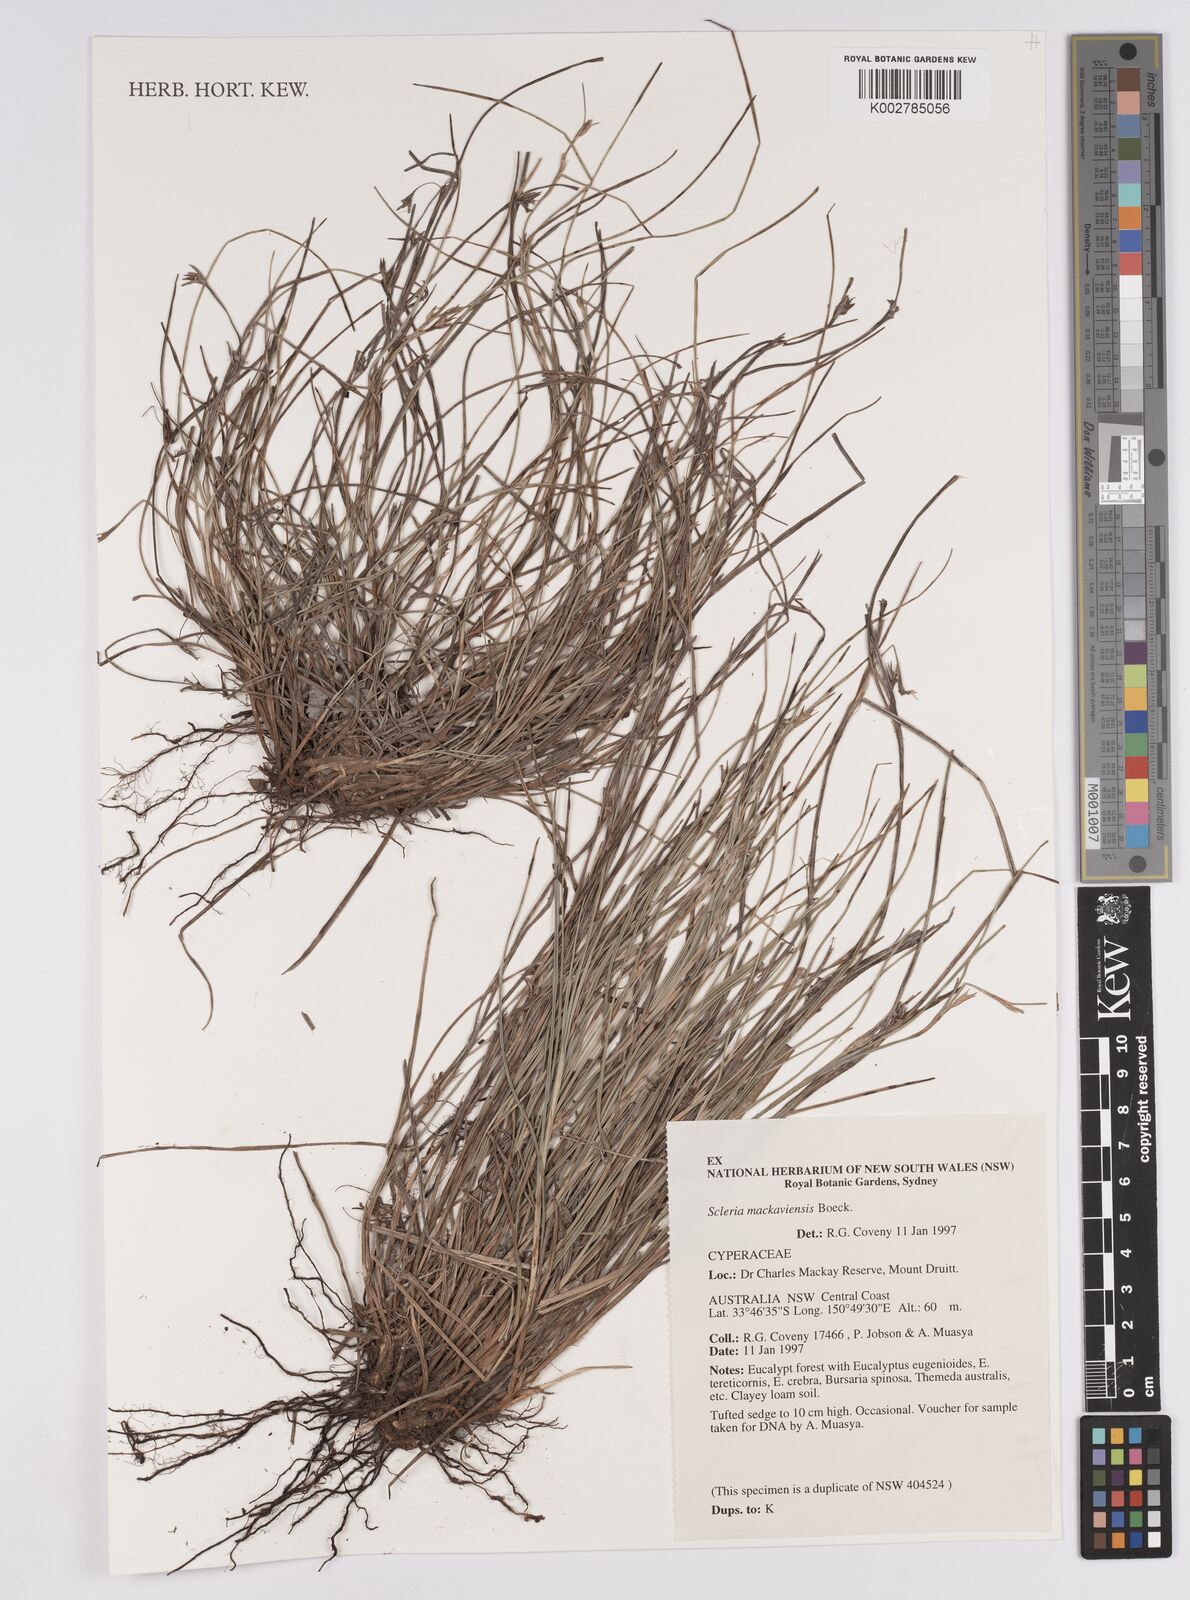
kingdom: Plantae
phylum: Tracheophyta
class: Liliopsida
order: Poales
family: Cyperaceae
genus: Scleria
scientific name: Scleria mackaviensis
